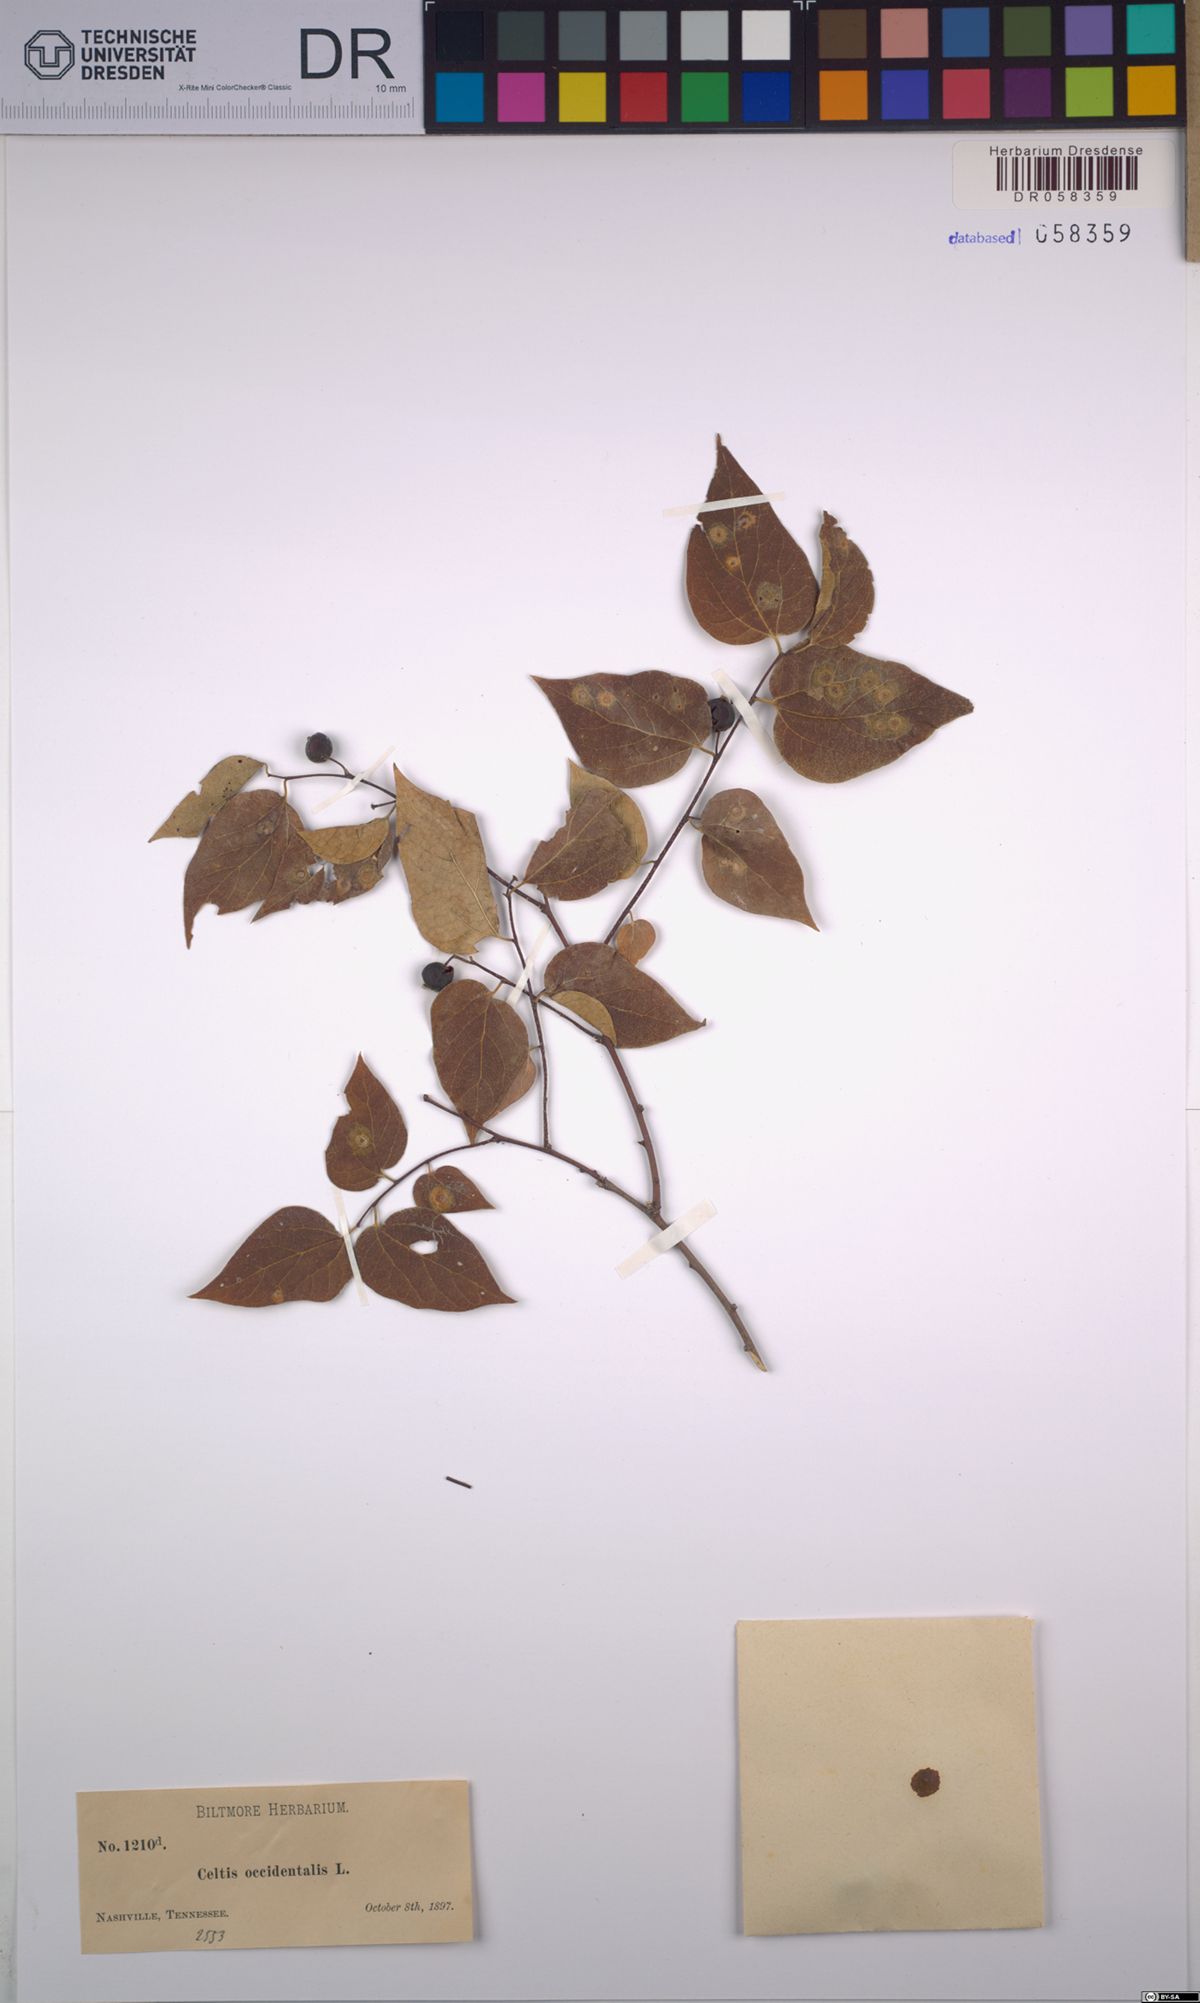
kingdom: Plantae
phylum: Tracheophyta
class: Magnoliopsida
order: Rosales
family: Cannabaceae
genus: Celtis
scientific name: Celtis occidentalis
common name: Common hackberry
